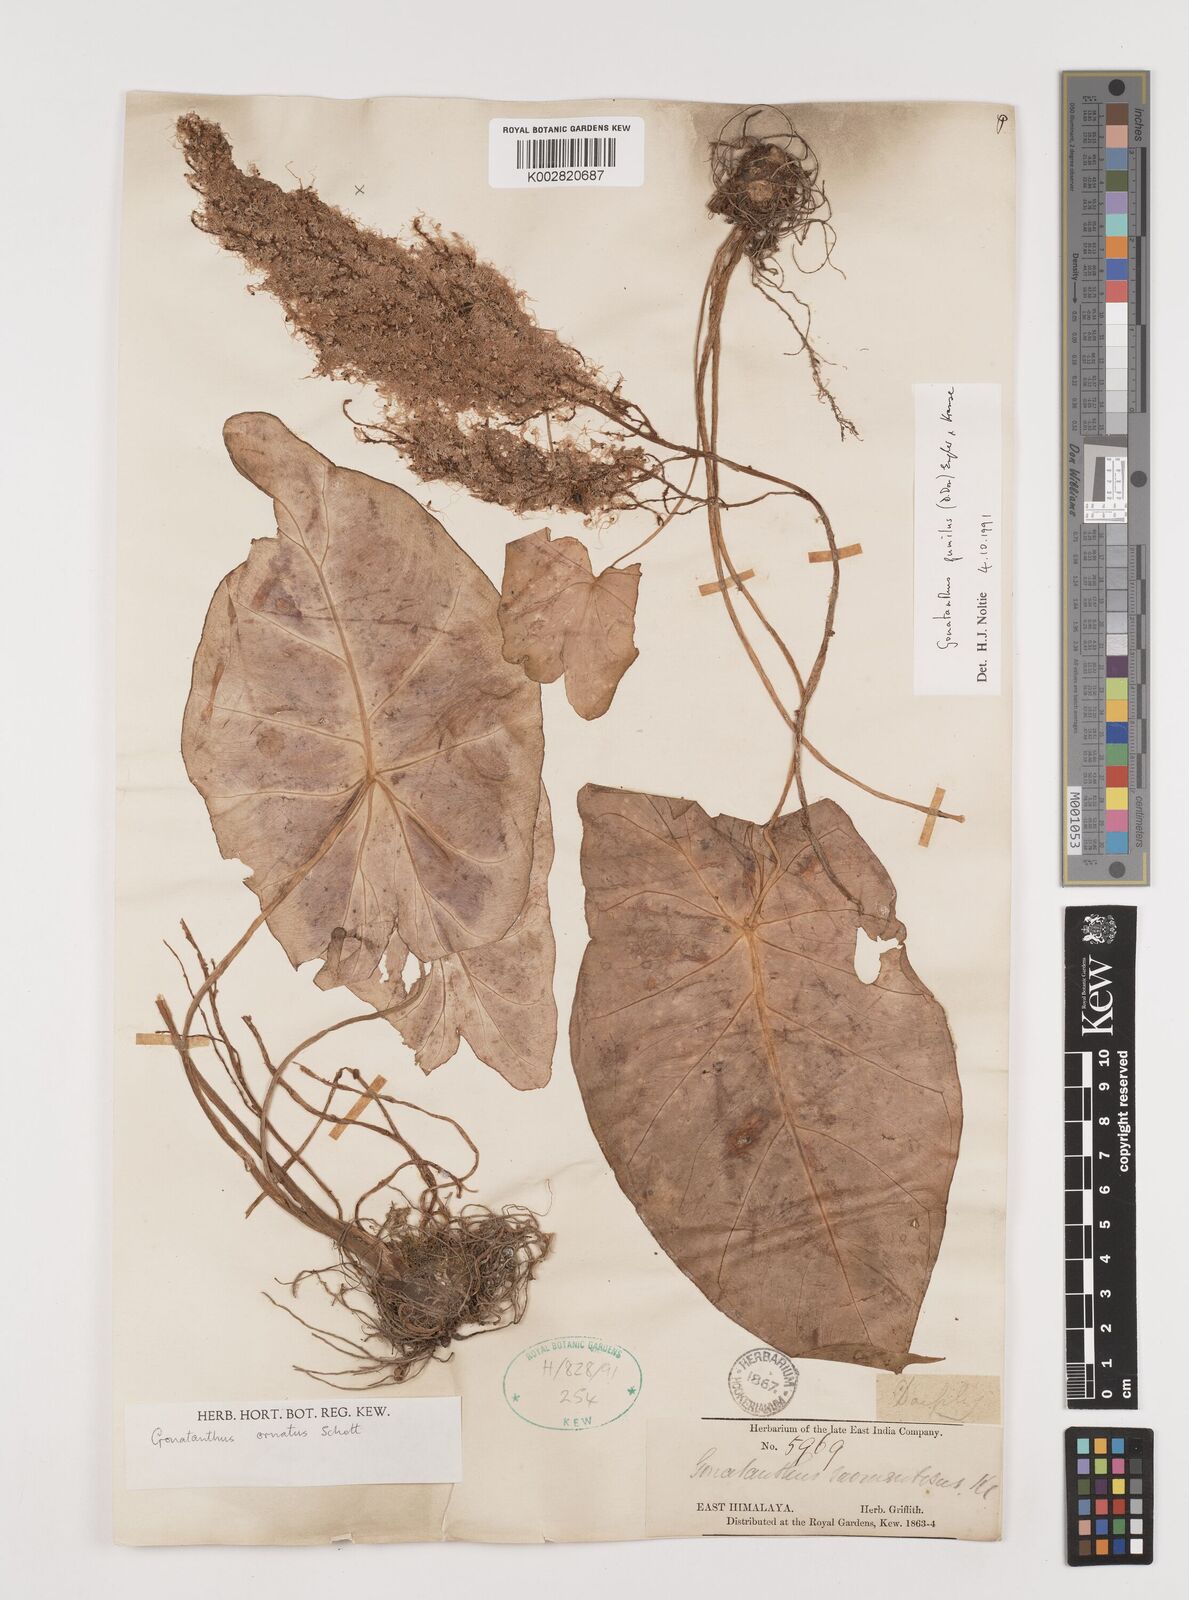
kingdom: Plantae
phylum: Tracheophyta
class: Liliopsida
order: Alismatales
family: Araceae
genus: Remusatia
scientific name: Remusatia pumila
